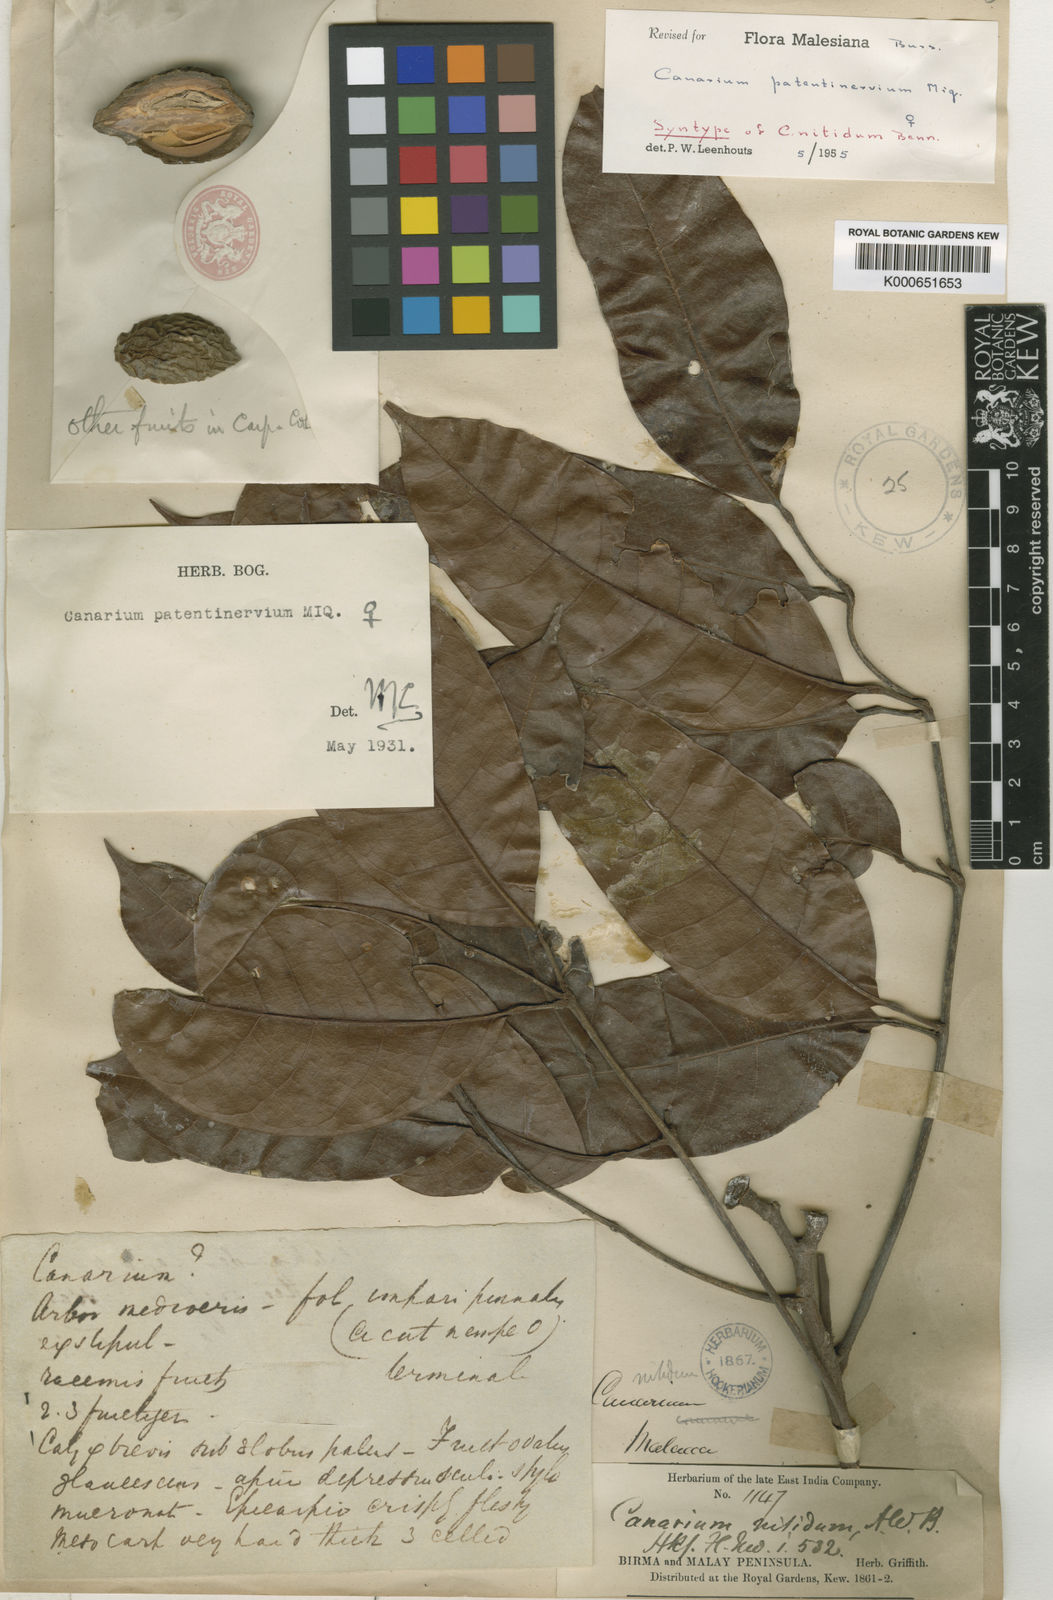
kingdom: Plantae
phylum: Tracheophyta
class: Magnoliopsida
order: Sapindales
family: Burseraceae
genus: Canarium
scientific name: Canarium patentinervium
